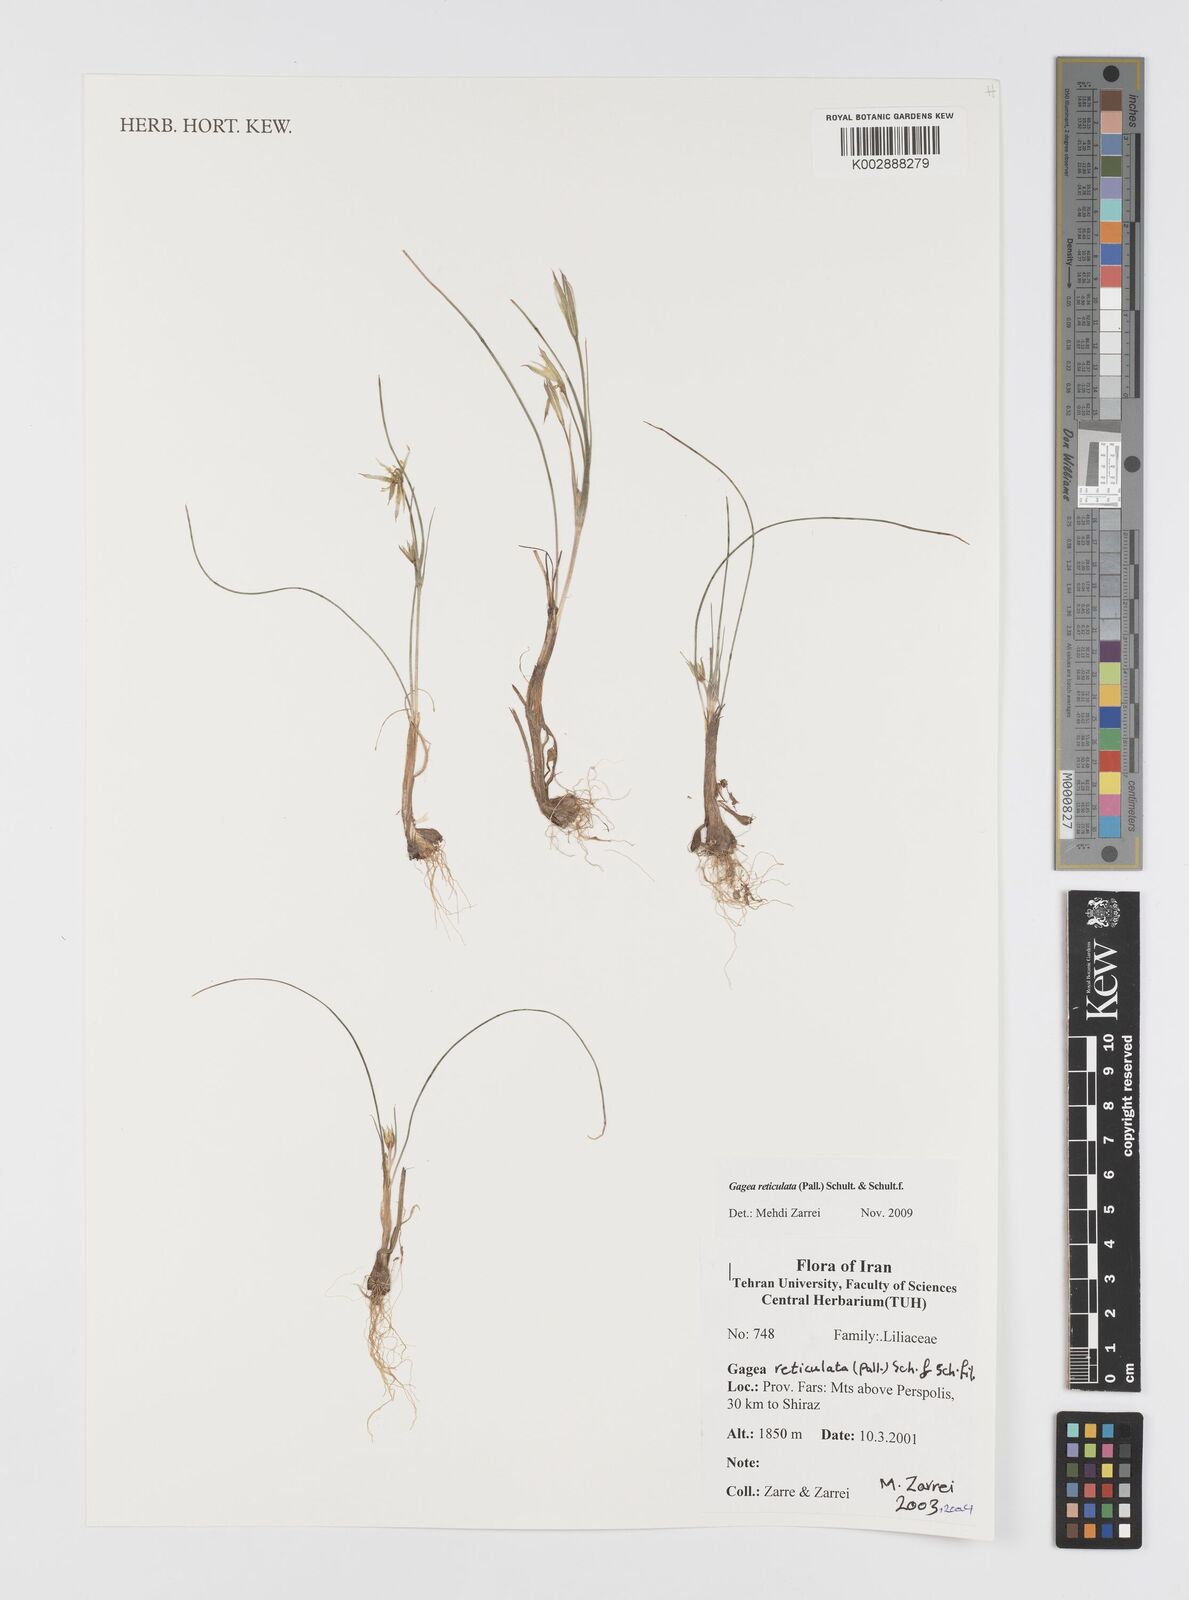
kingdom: Plantae
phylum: Tracheophyta
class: Liliopsida
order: Liliales
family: Liliaceae
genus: Gagea
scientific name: Gagea reticulata
